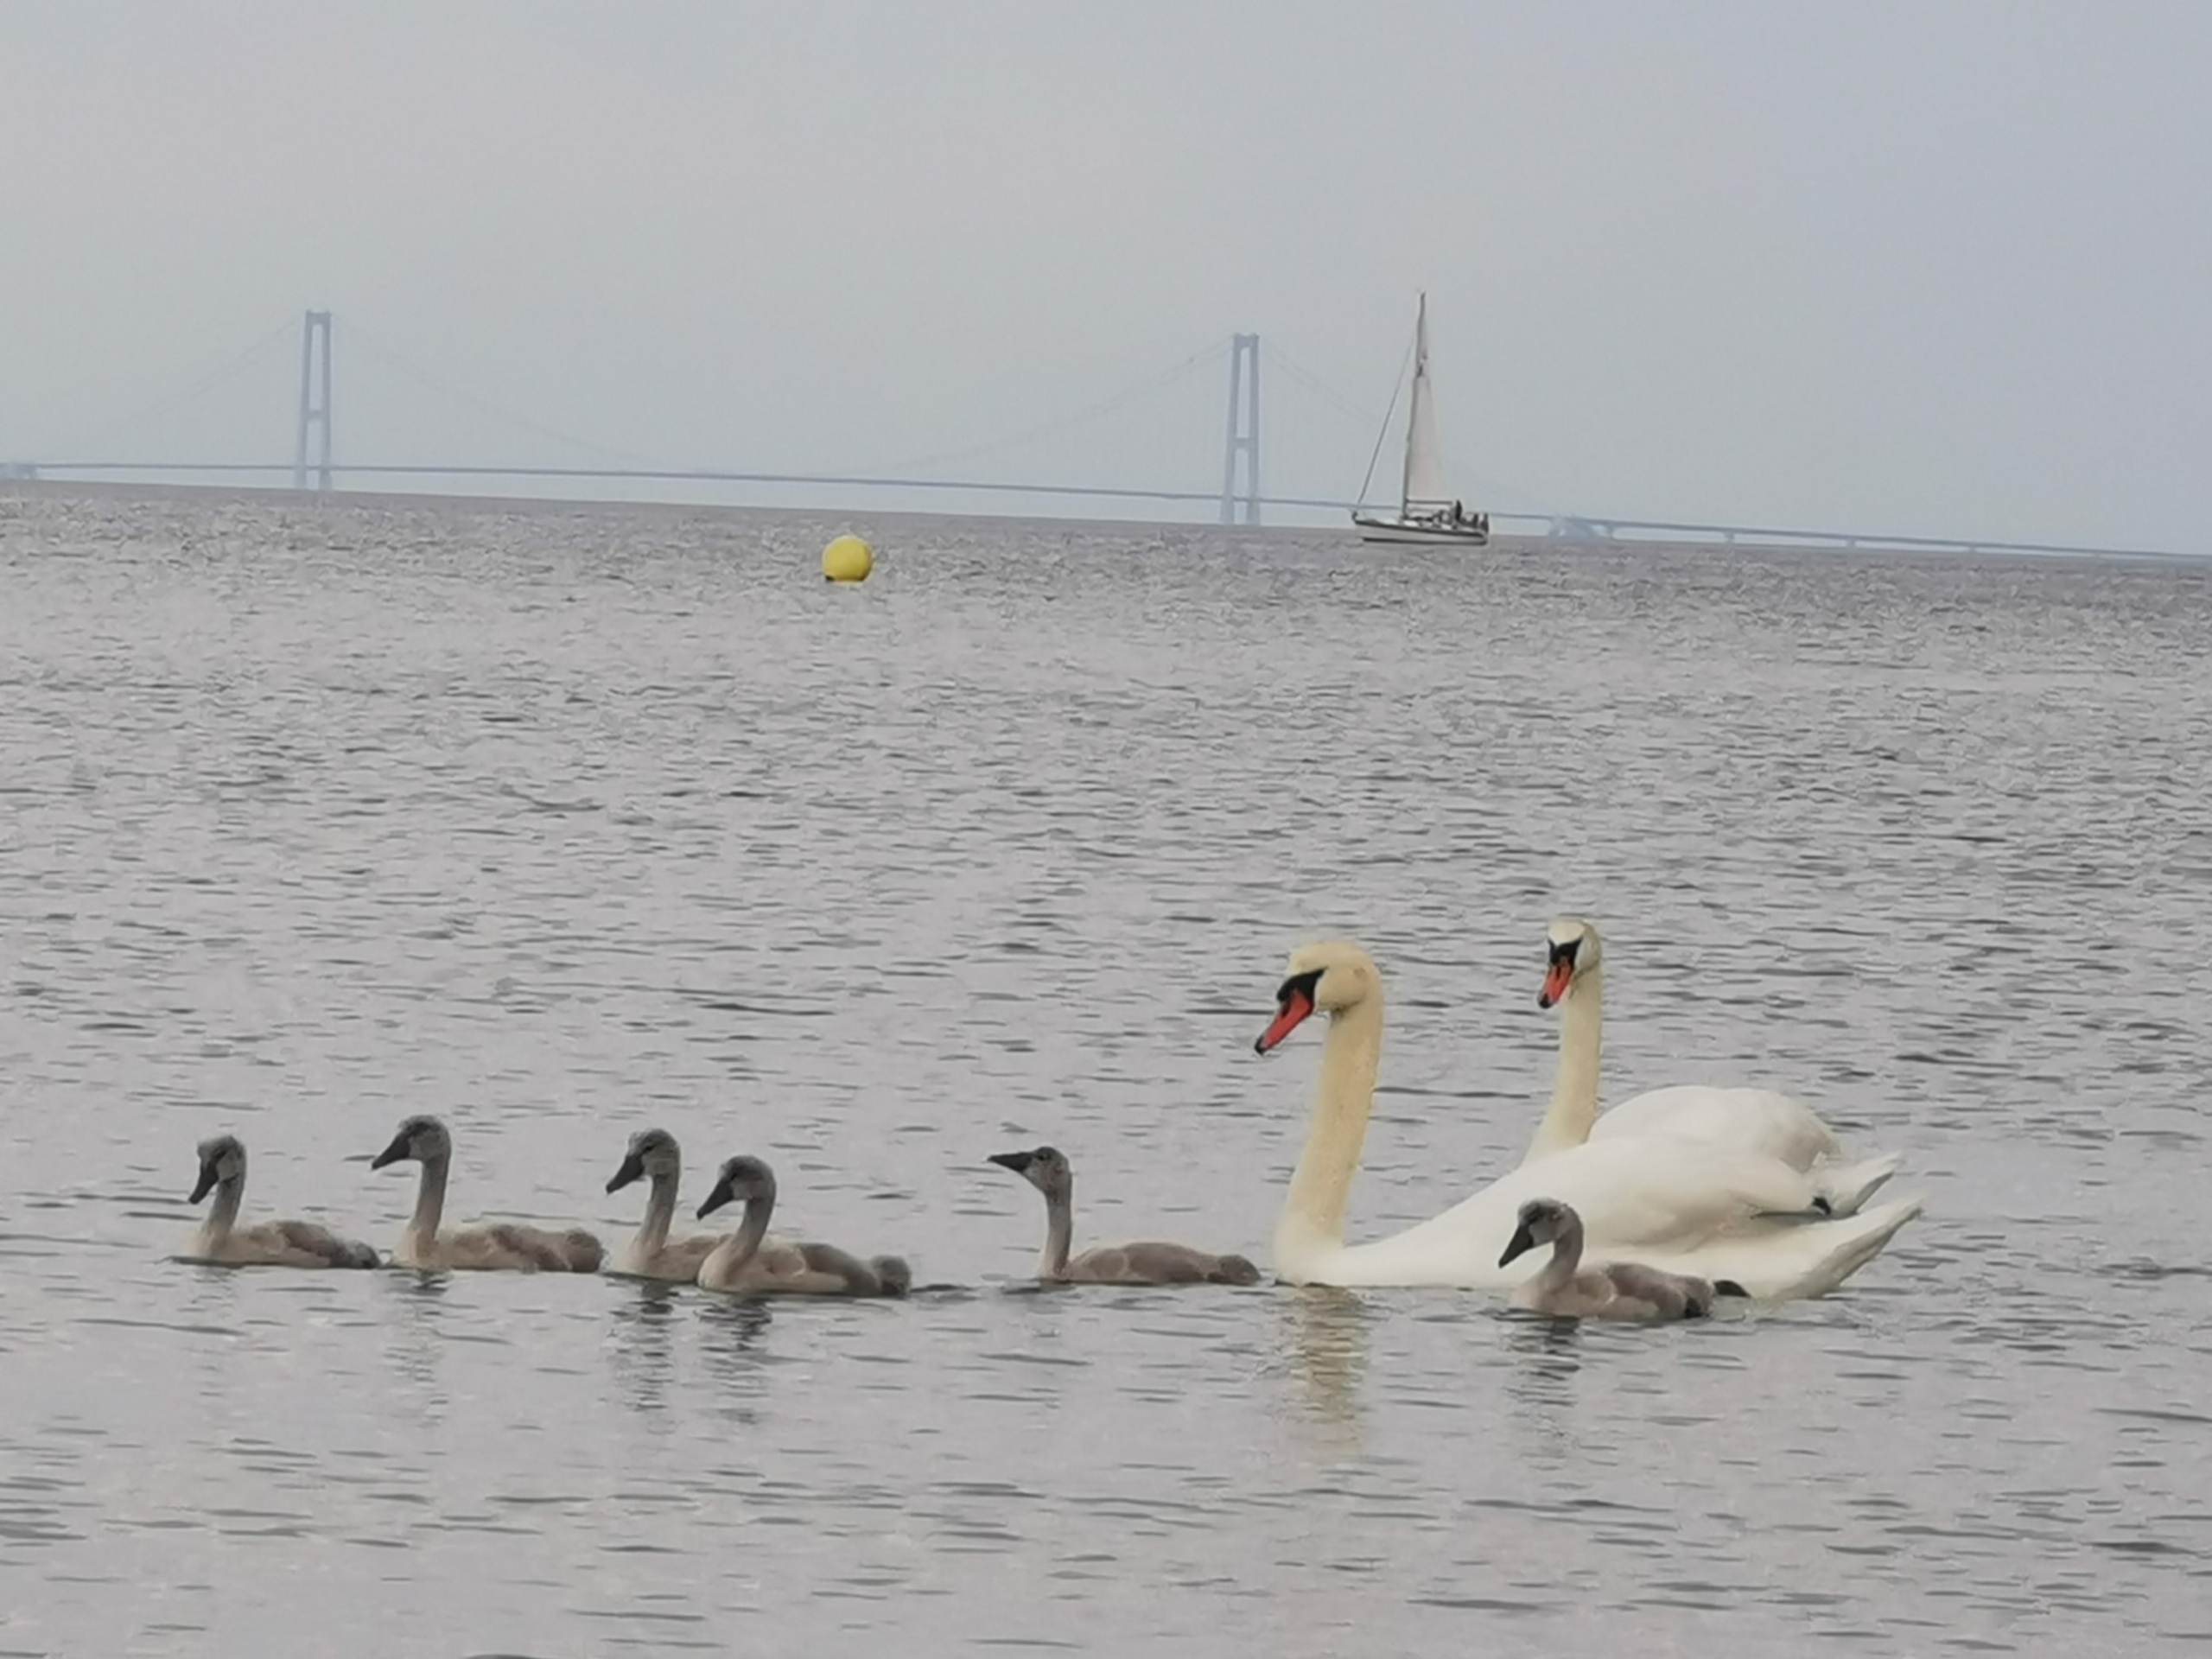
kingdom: Animalia
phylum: Chordata
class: Aves
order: Anseriformes
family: Anatidae
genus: Cygnus
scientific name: Cygnus olor
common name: Knopsvane
